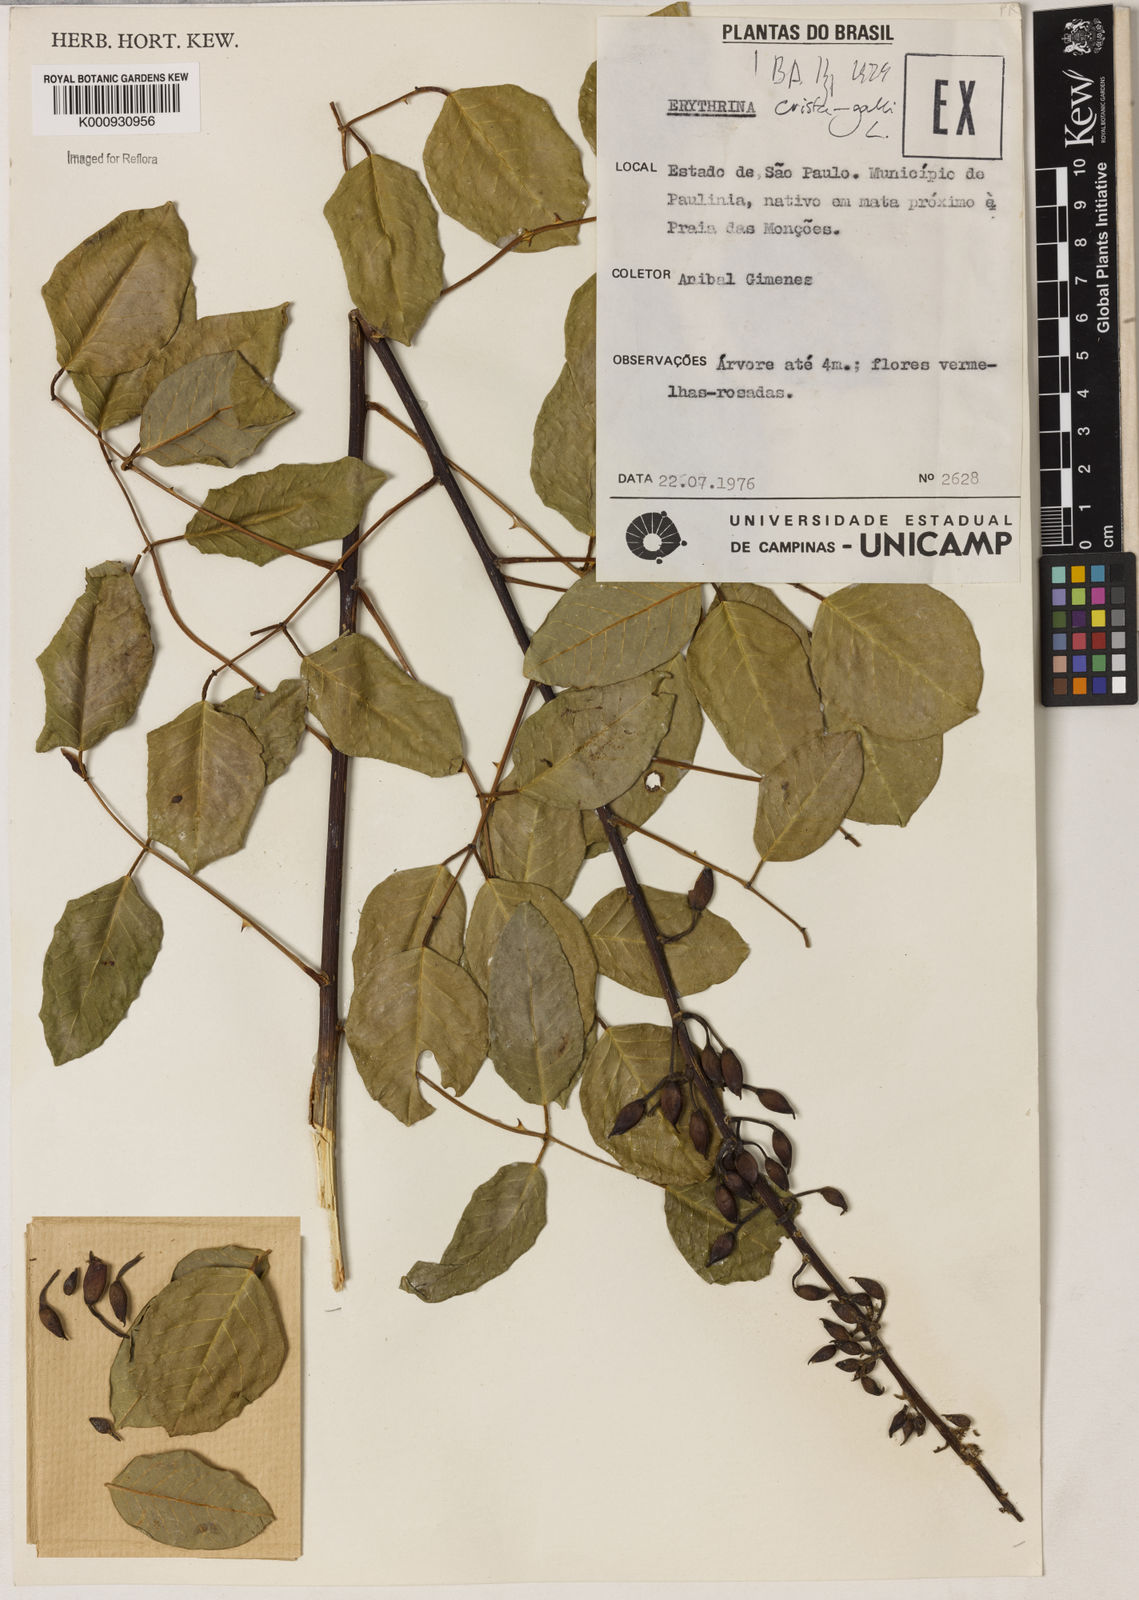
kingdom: Plantae
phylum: Tracheophyta
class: Magnoliopsida
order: Fabales
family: Fabaceae
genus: Erythrina
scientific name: Erythrina crista-galli
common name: Cockspur coral tree
